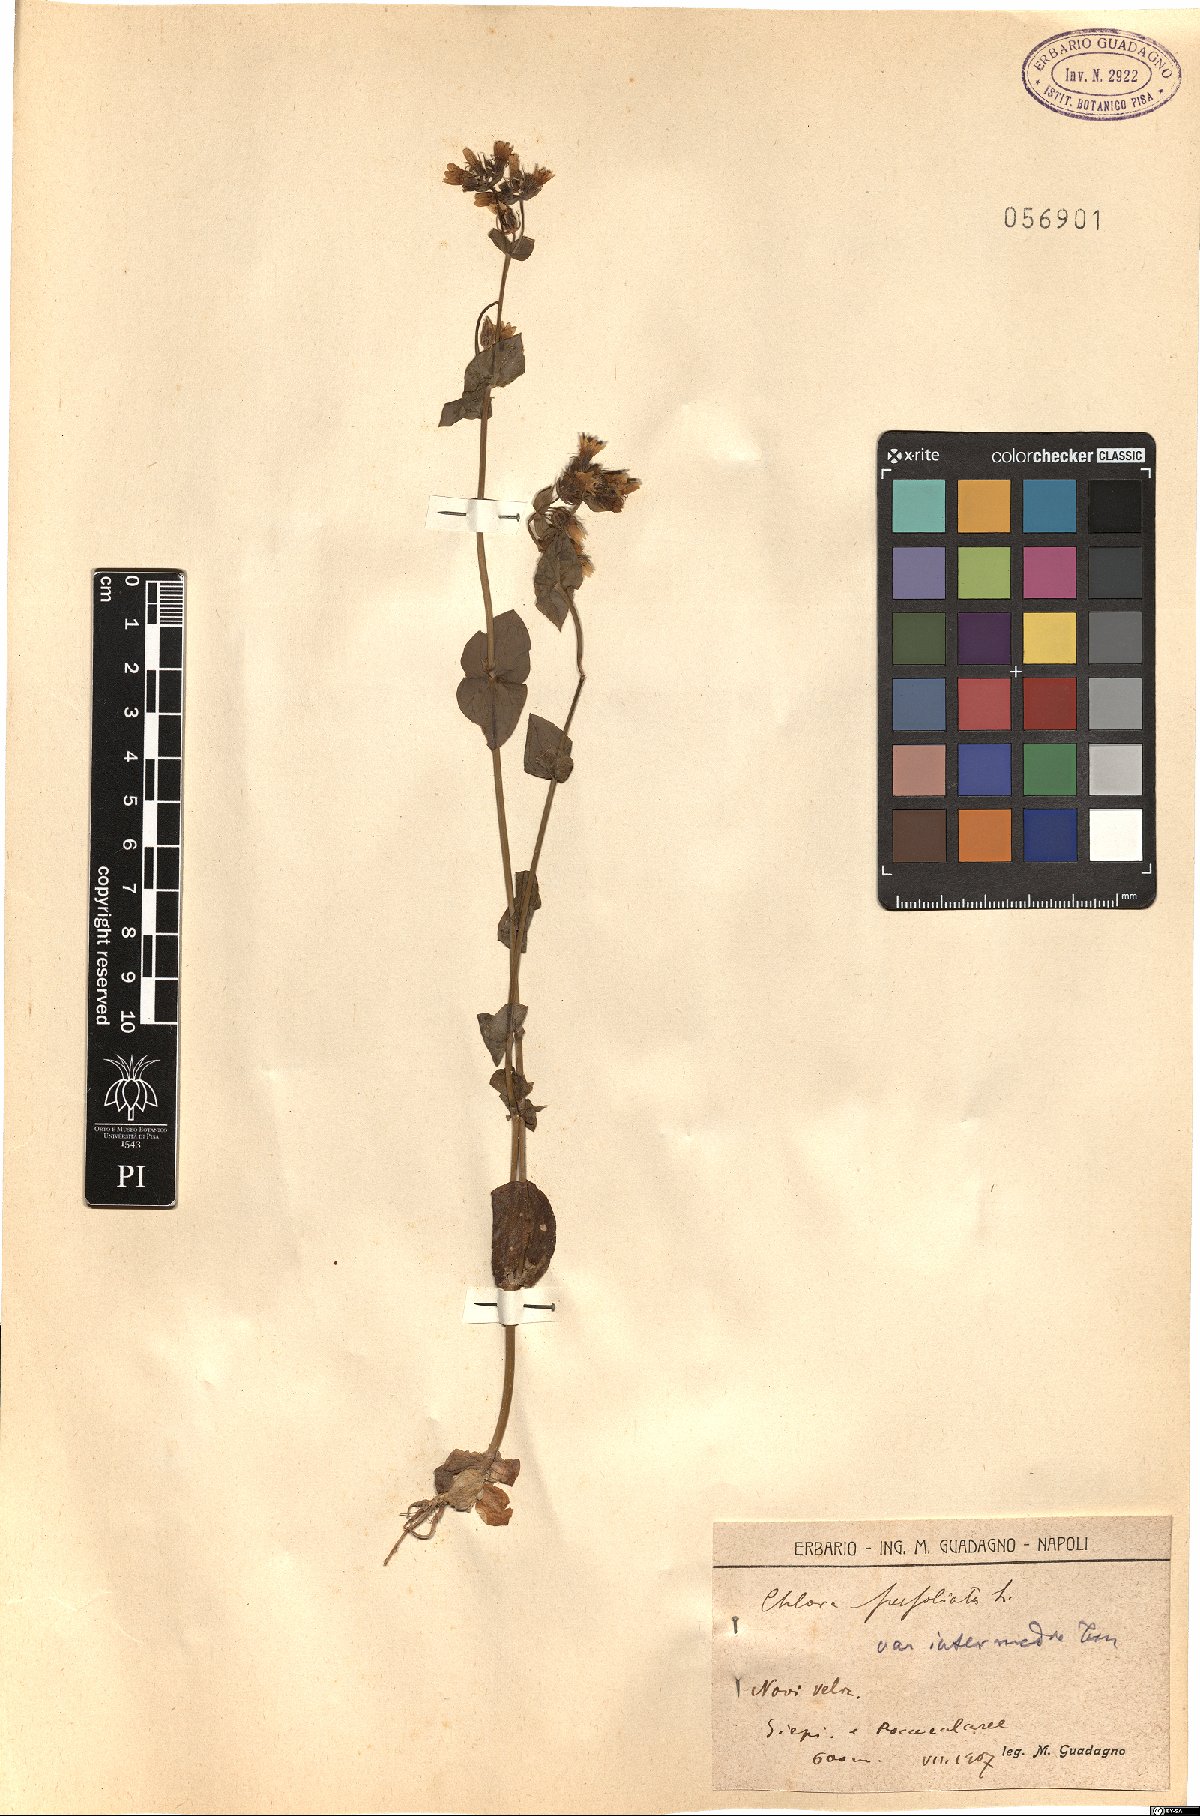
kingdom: Plantae
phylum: Tracheophyta
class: Magnoliopsida
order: Gentianales
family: Gentianaceae
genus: Blackstonia
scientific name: Blackstonia perfoliata
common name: Yellow-wort
